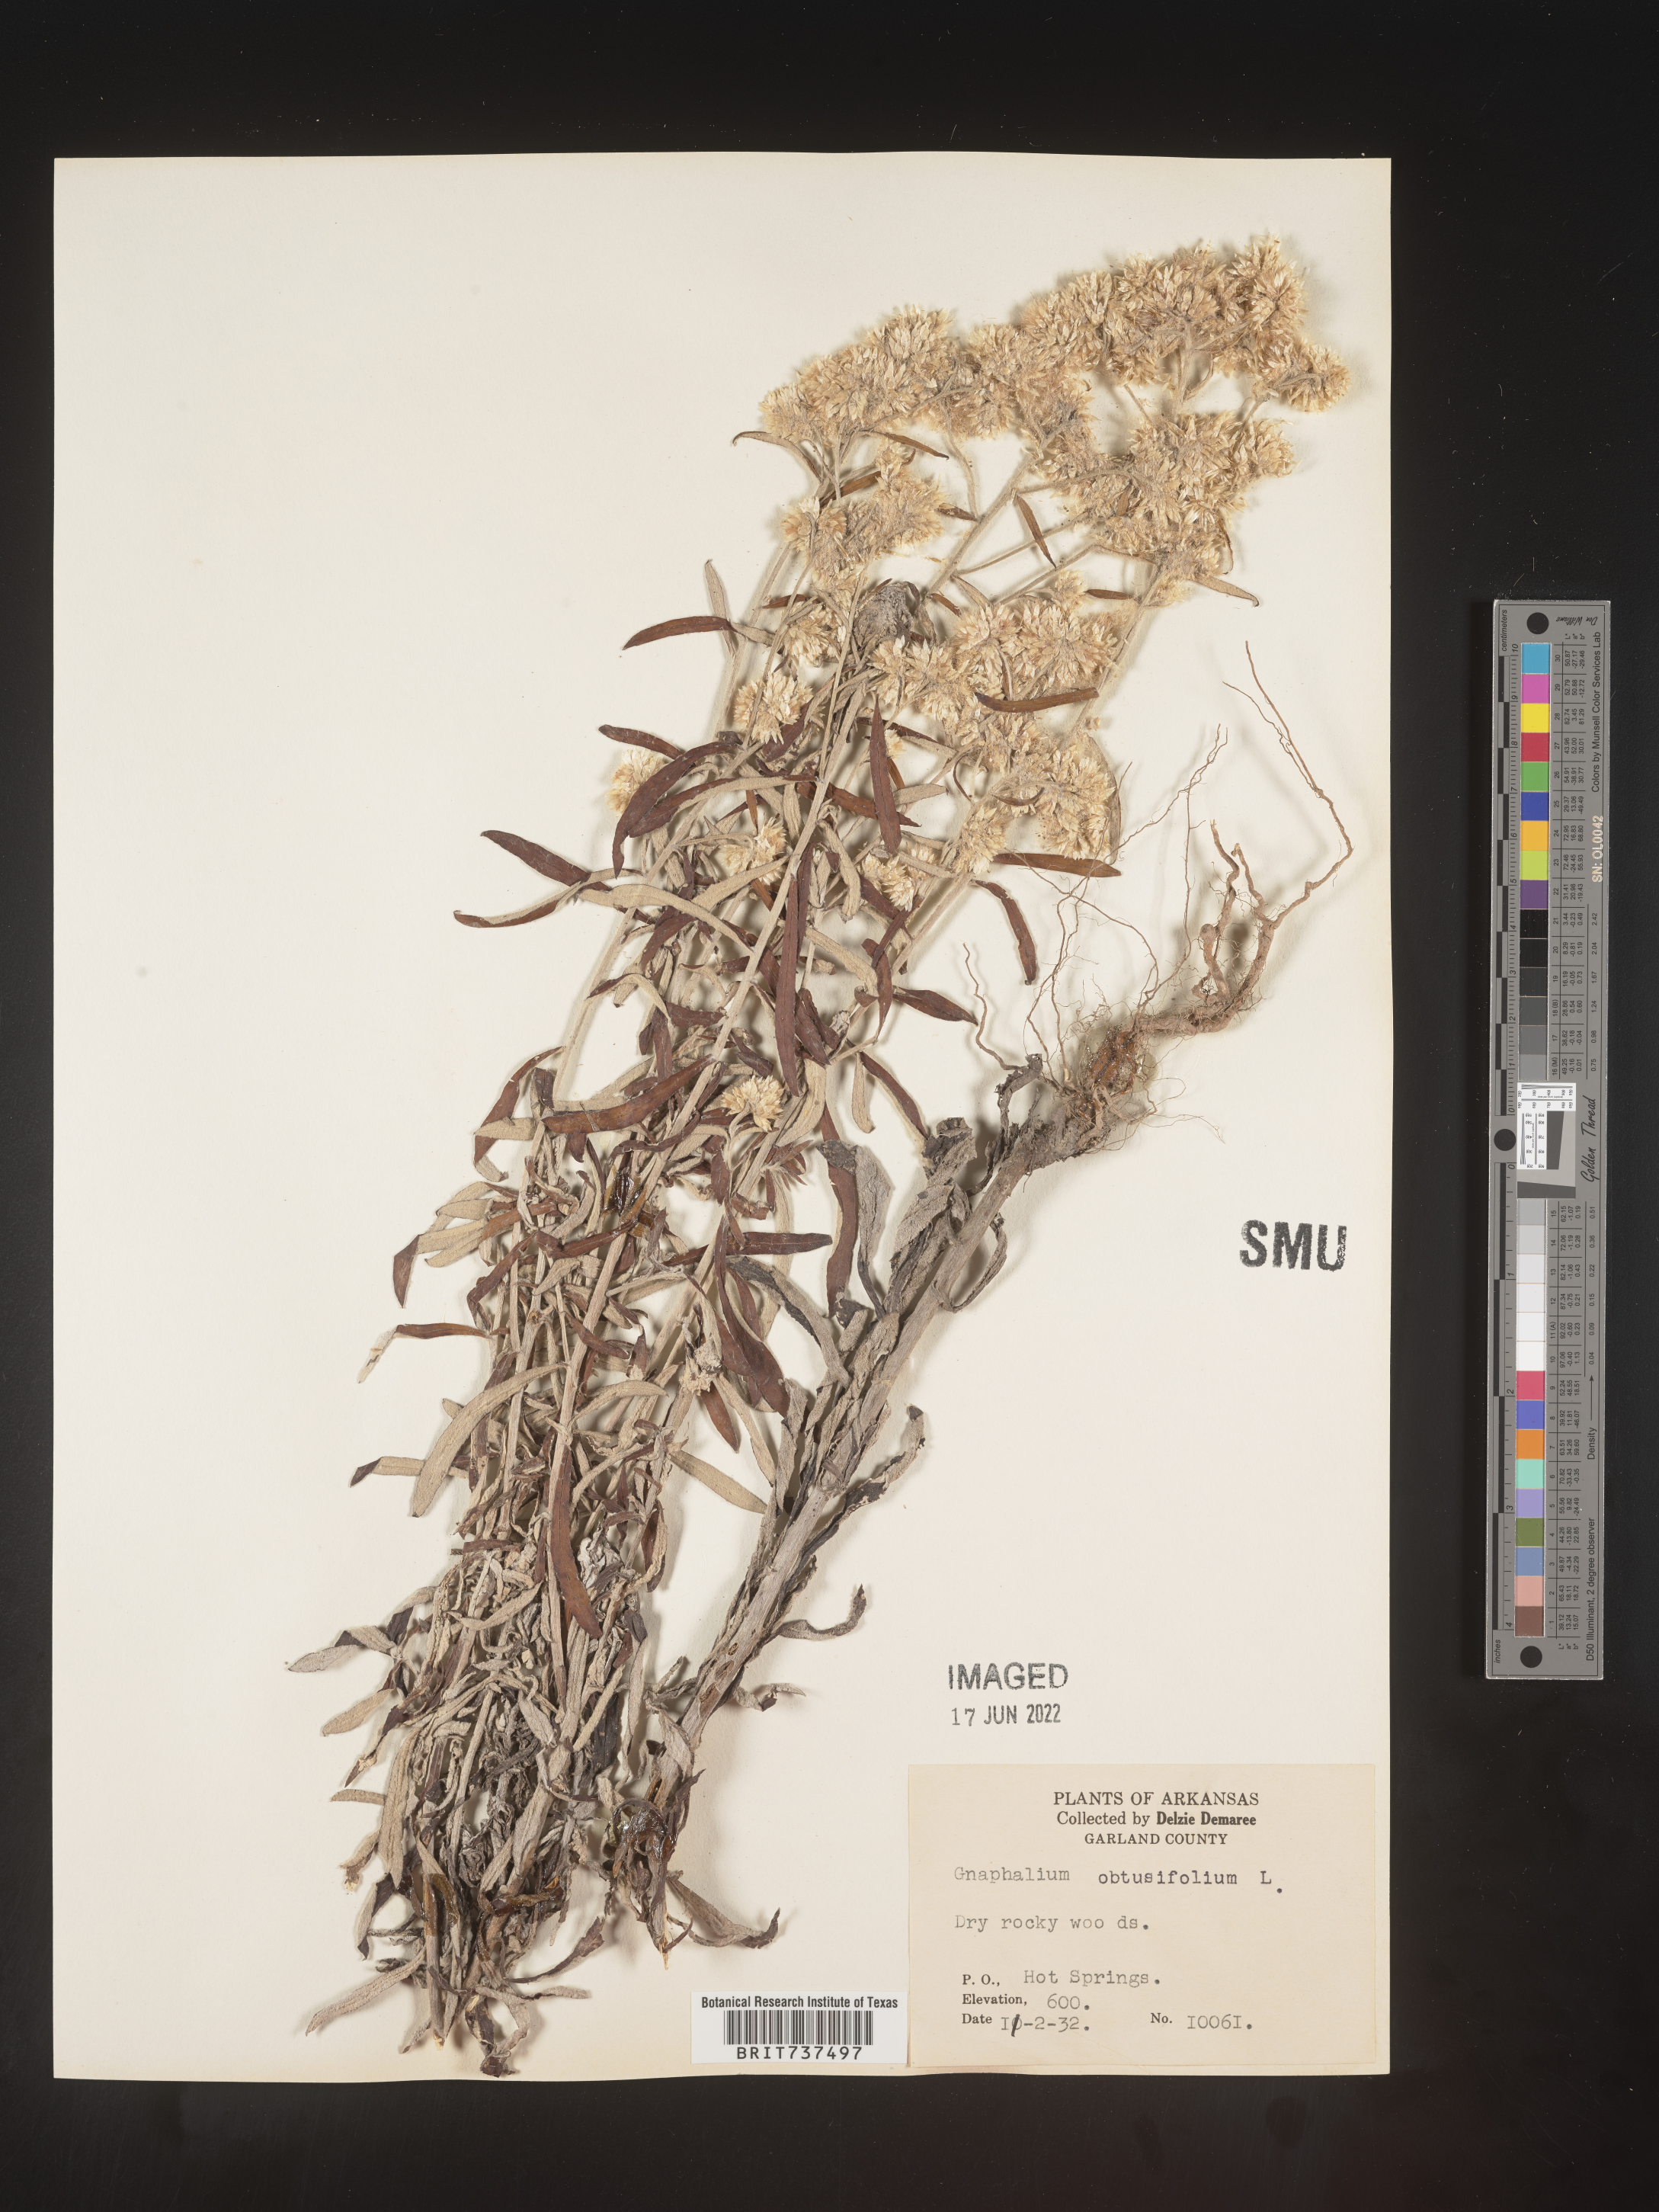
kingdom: Plantae
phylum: Tracheophyta
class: Magnoliopsida
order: Asterales
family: Asteraceae
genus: Pseudognaphalium
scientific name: Pseudognaphalium obtusifolium
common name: Eastern rabbit-tobacco
